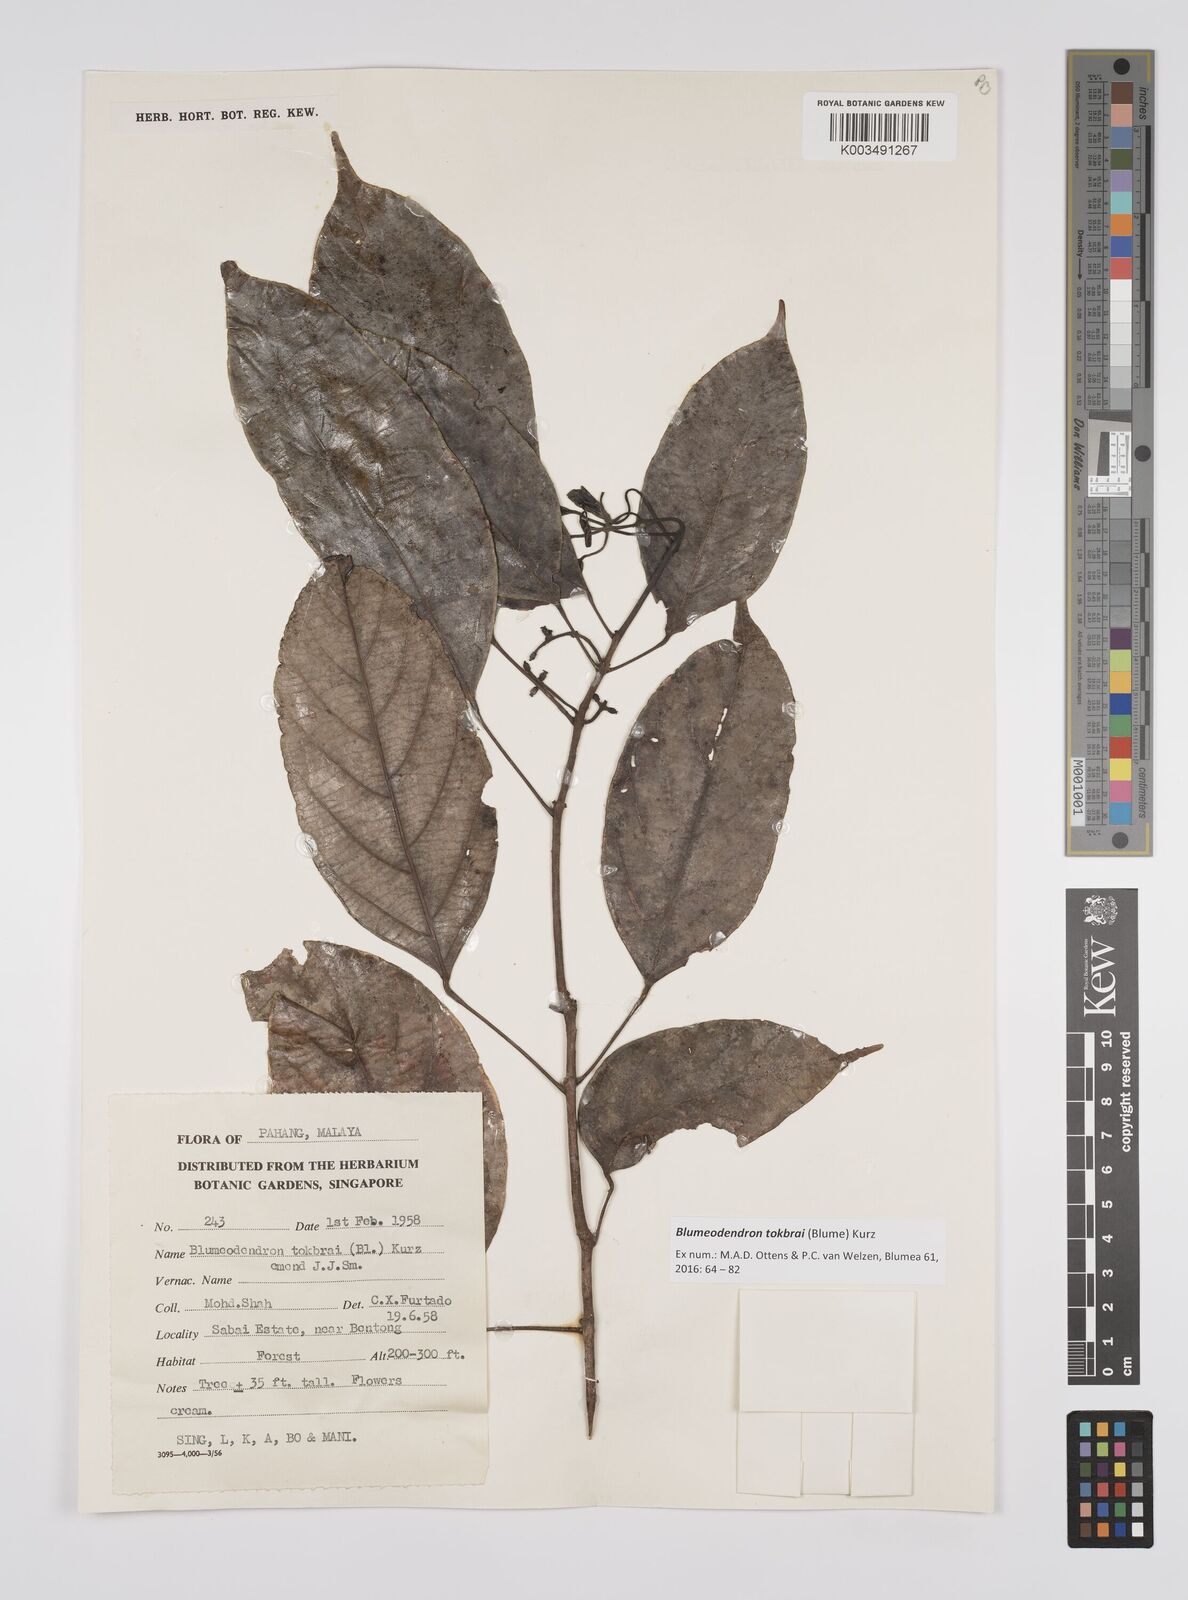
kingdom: Plantae
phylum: Tracheophyta
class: Magnoliopsida
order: Malpighiales
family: Euphorbiaceae
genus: Blumeodendron
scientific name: Blumeodendron tokbrai
